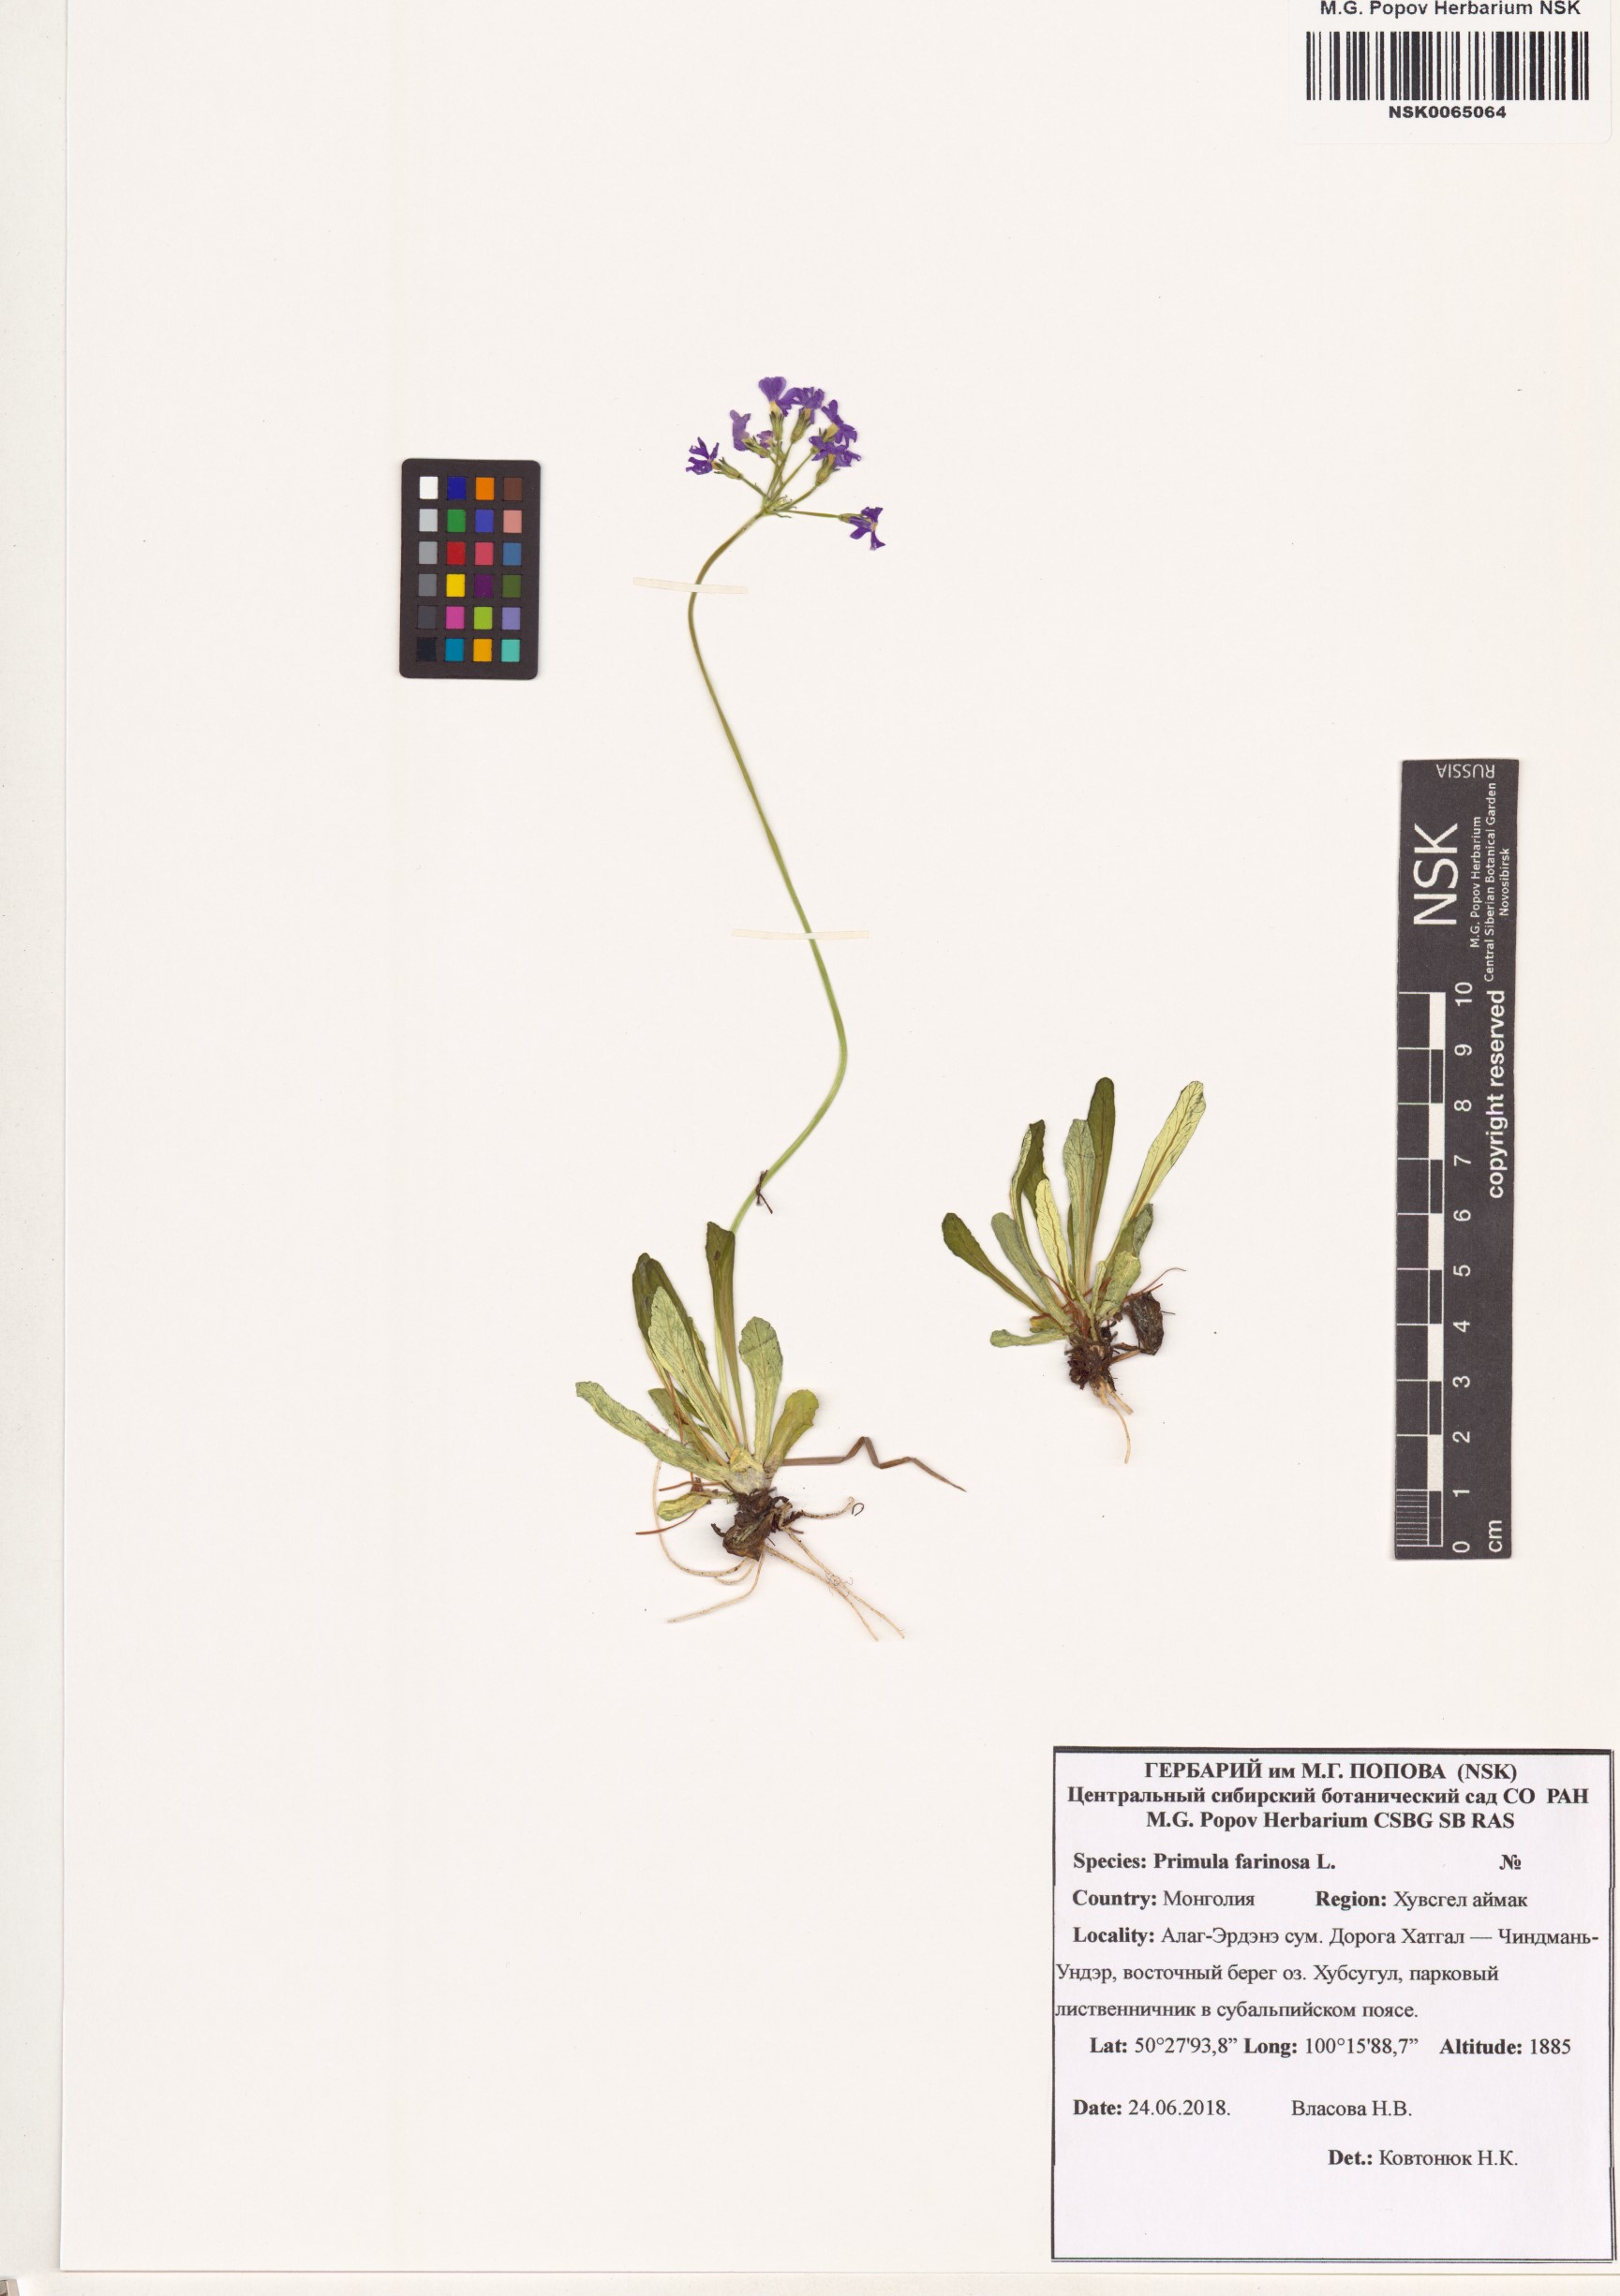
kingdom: Plantae
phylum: Tracheophyta
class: Magnoliopsida
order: Ericales
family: Primulaceae
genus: Primula
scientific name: Primula farinosa
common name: Bird's-eye primrose
